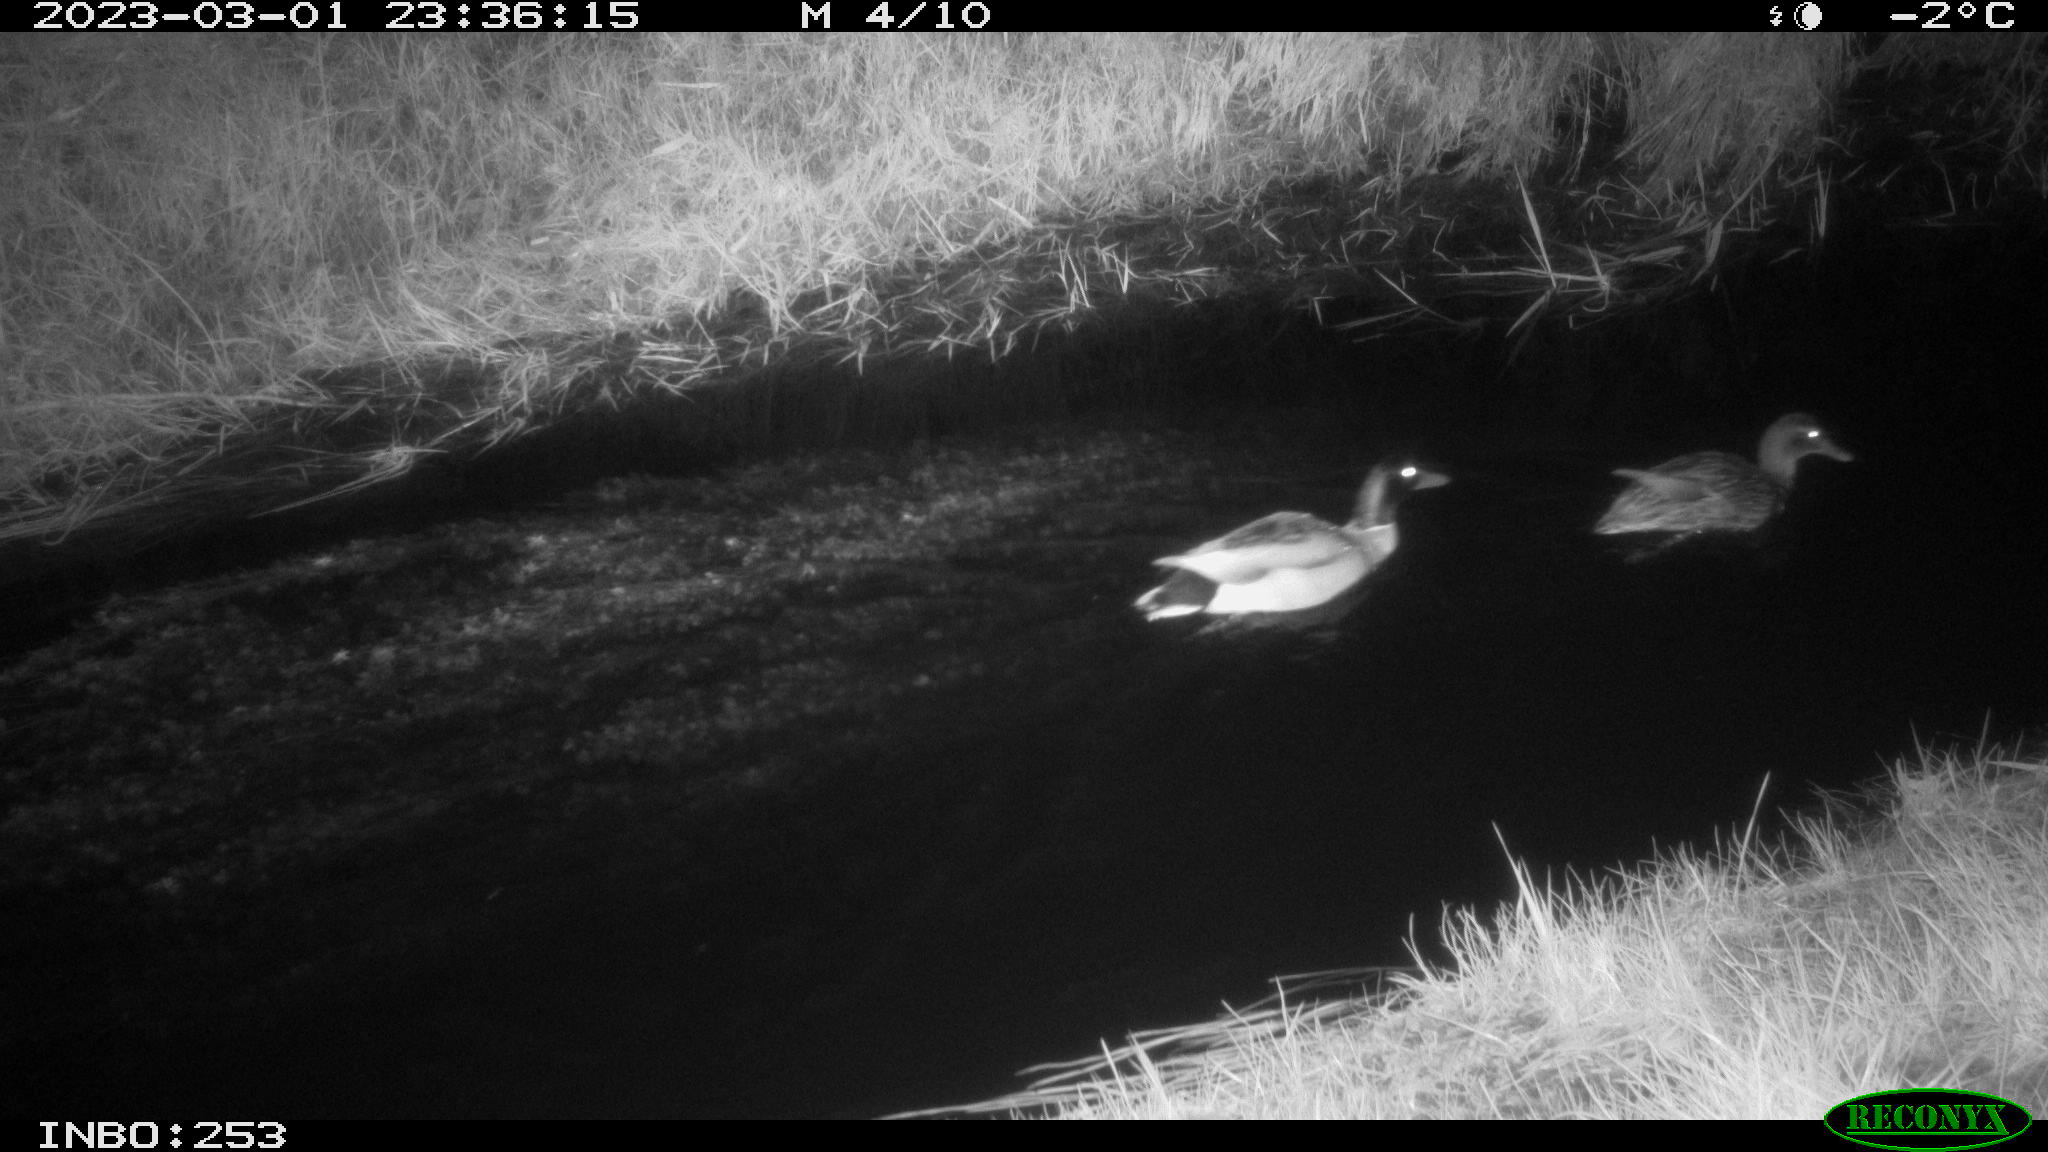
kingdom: Animalia
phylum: Chordata
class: Aves
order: Anseriformes
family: Anatidae
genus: Anas
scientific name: Anas
